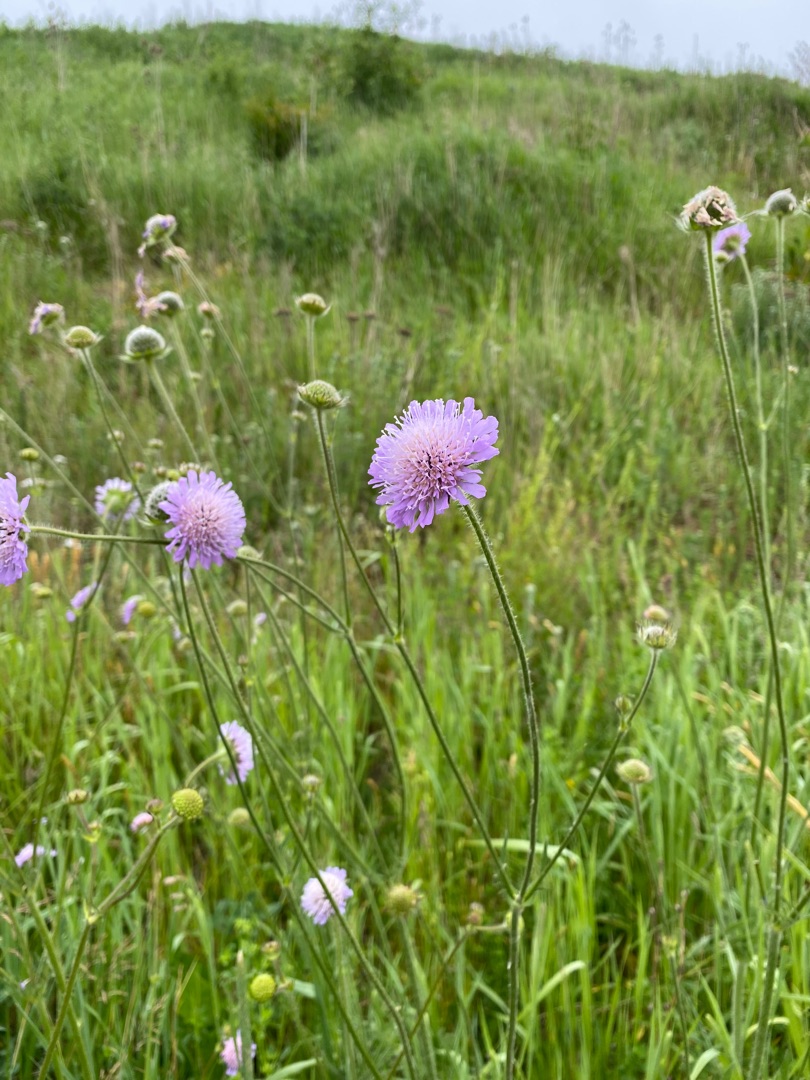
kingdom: Plantae
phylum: Tracheophyta
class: Magnoliopsida
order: Dipsacales
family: Caprifoliaceae
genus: Knautia
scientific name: Knautia arvensis
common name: Blåhat
